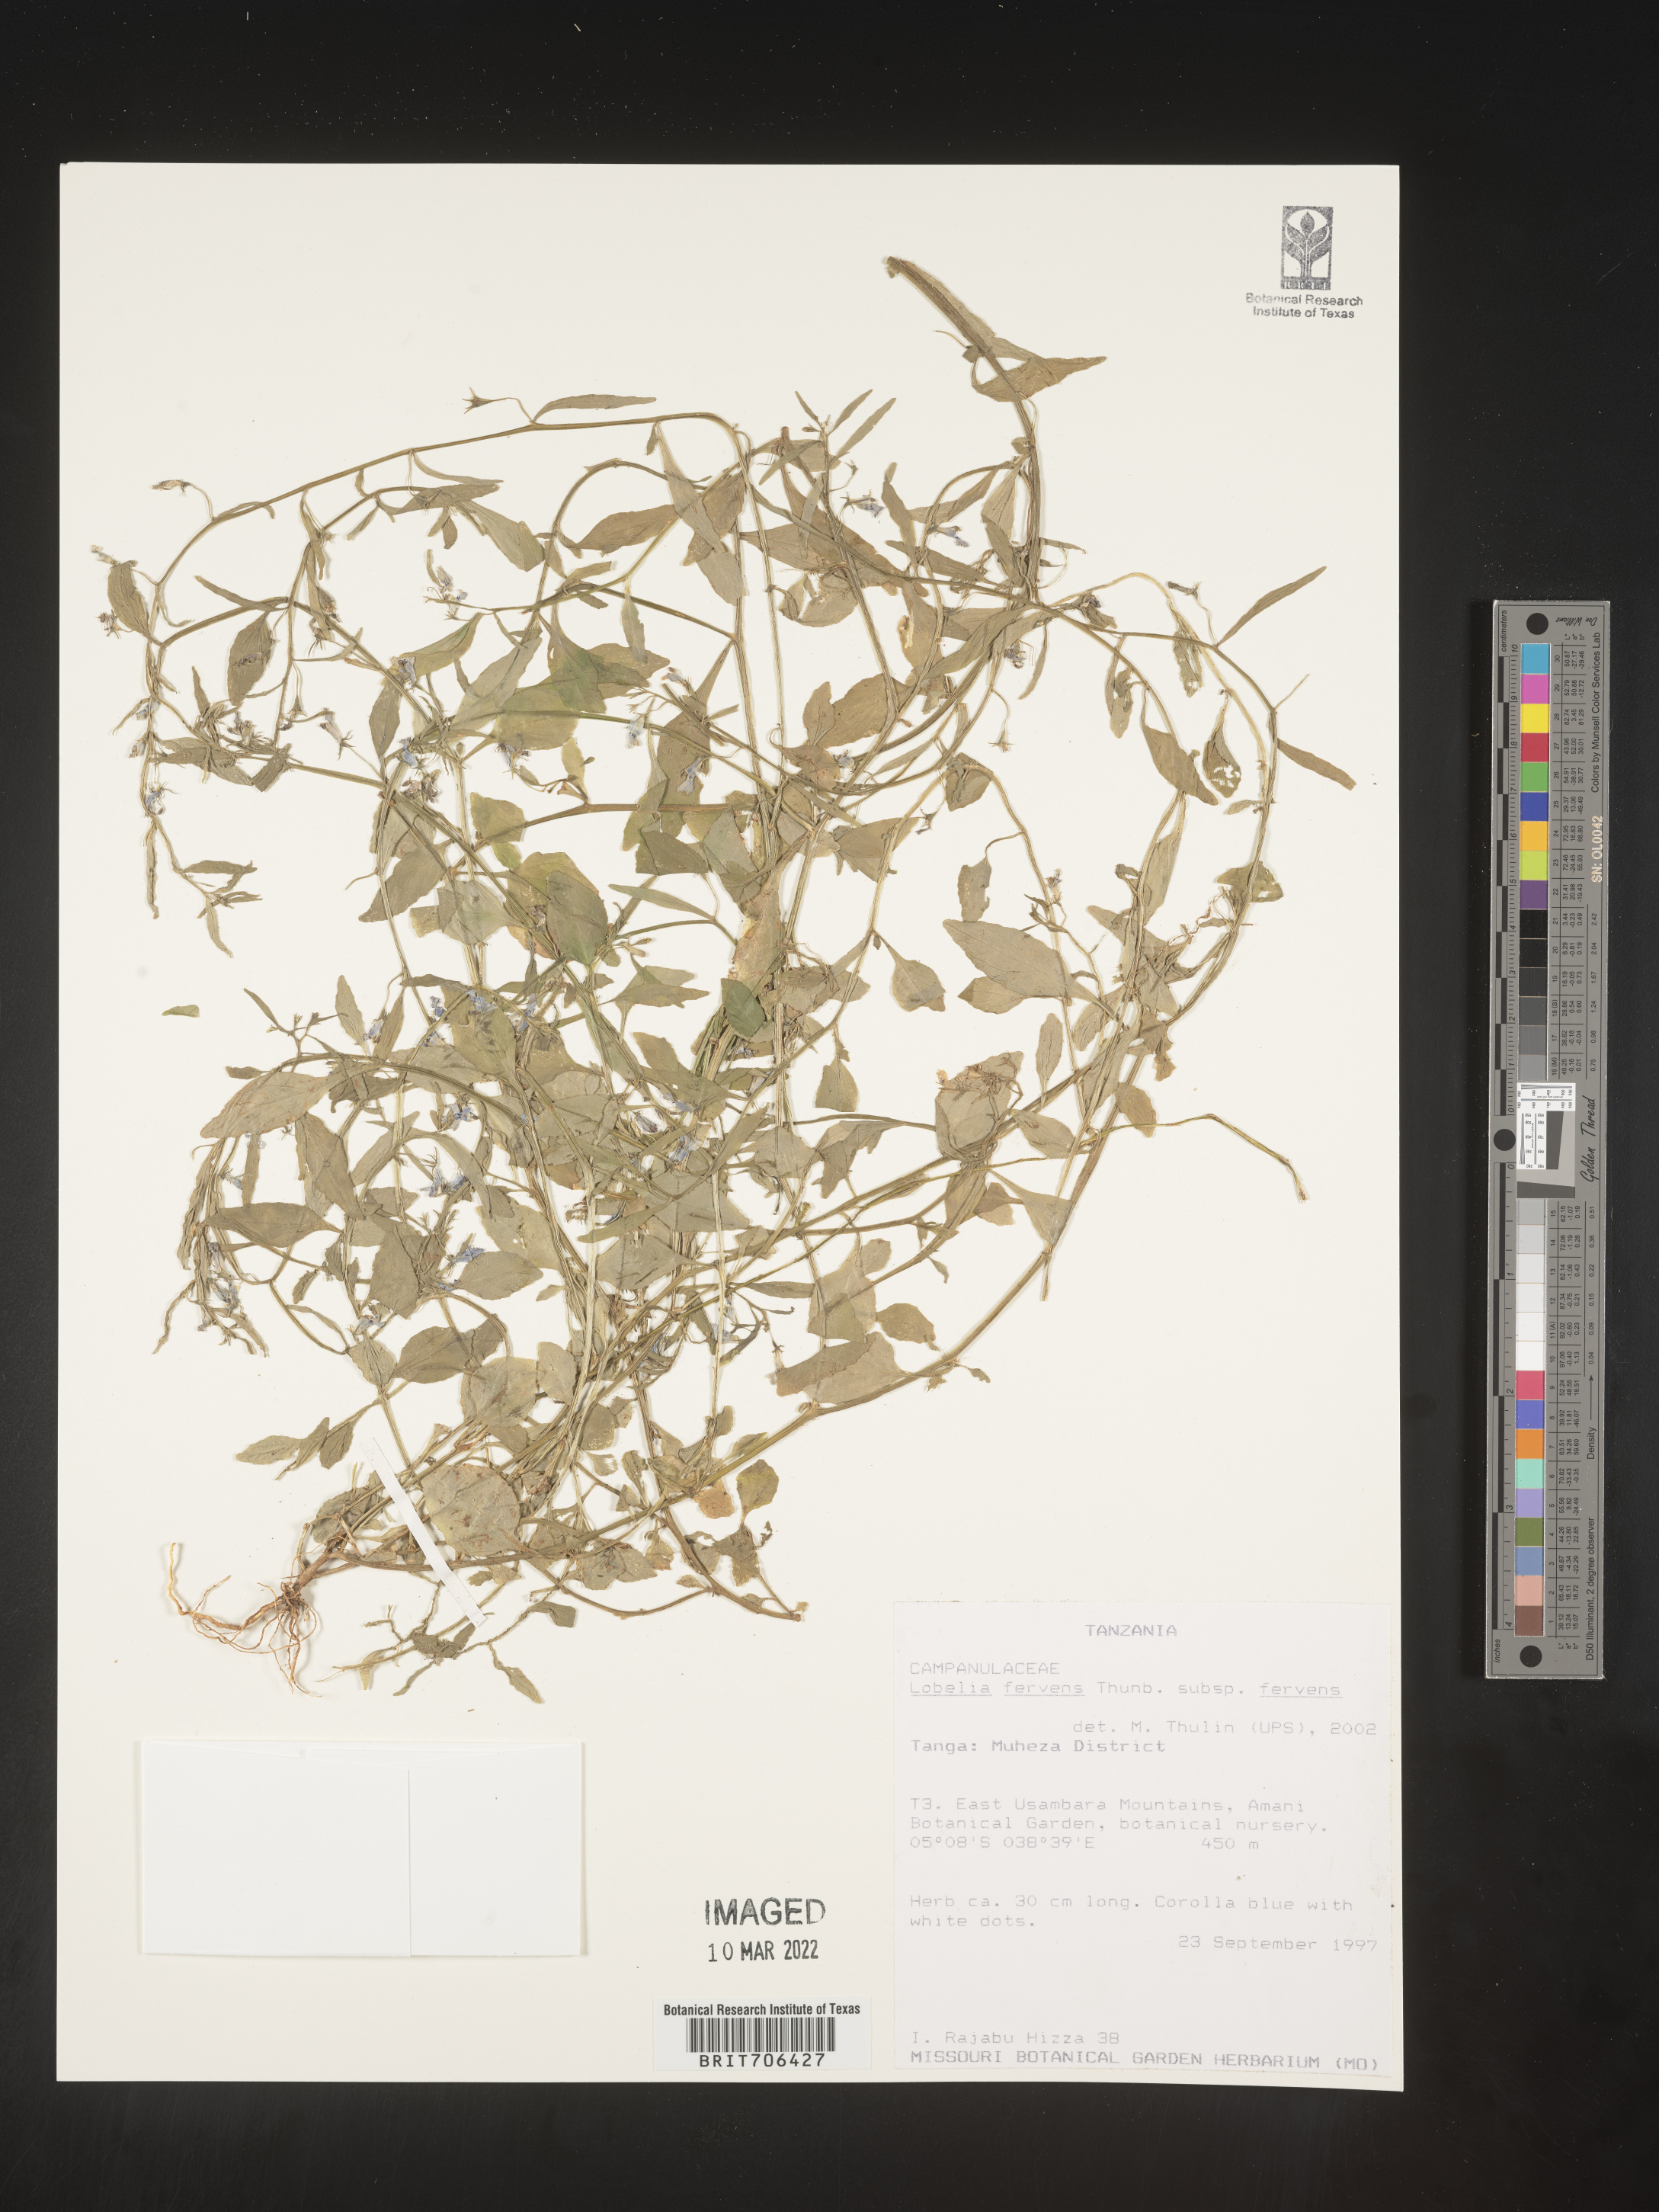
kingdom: Plantae
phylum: Tracheophyta
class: Magnoliopsida
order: Asterales
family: Campanulaceae
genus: Lobelia
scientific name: Lobelia
